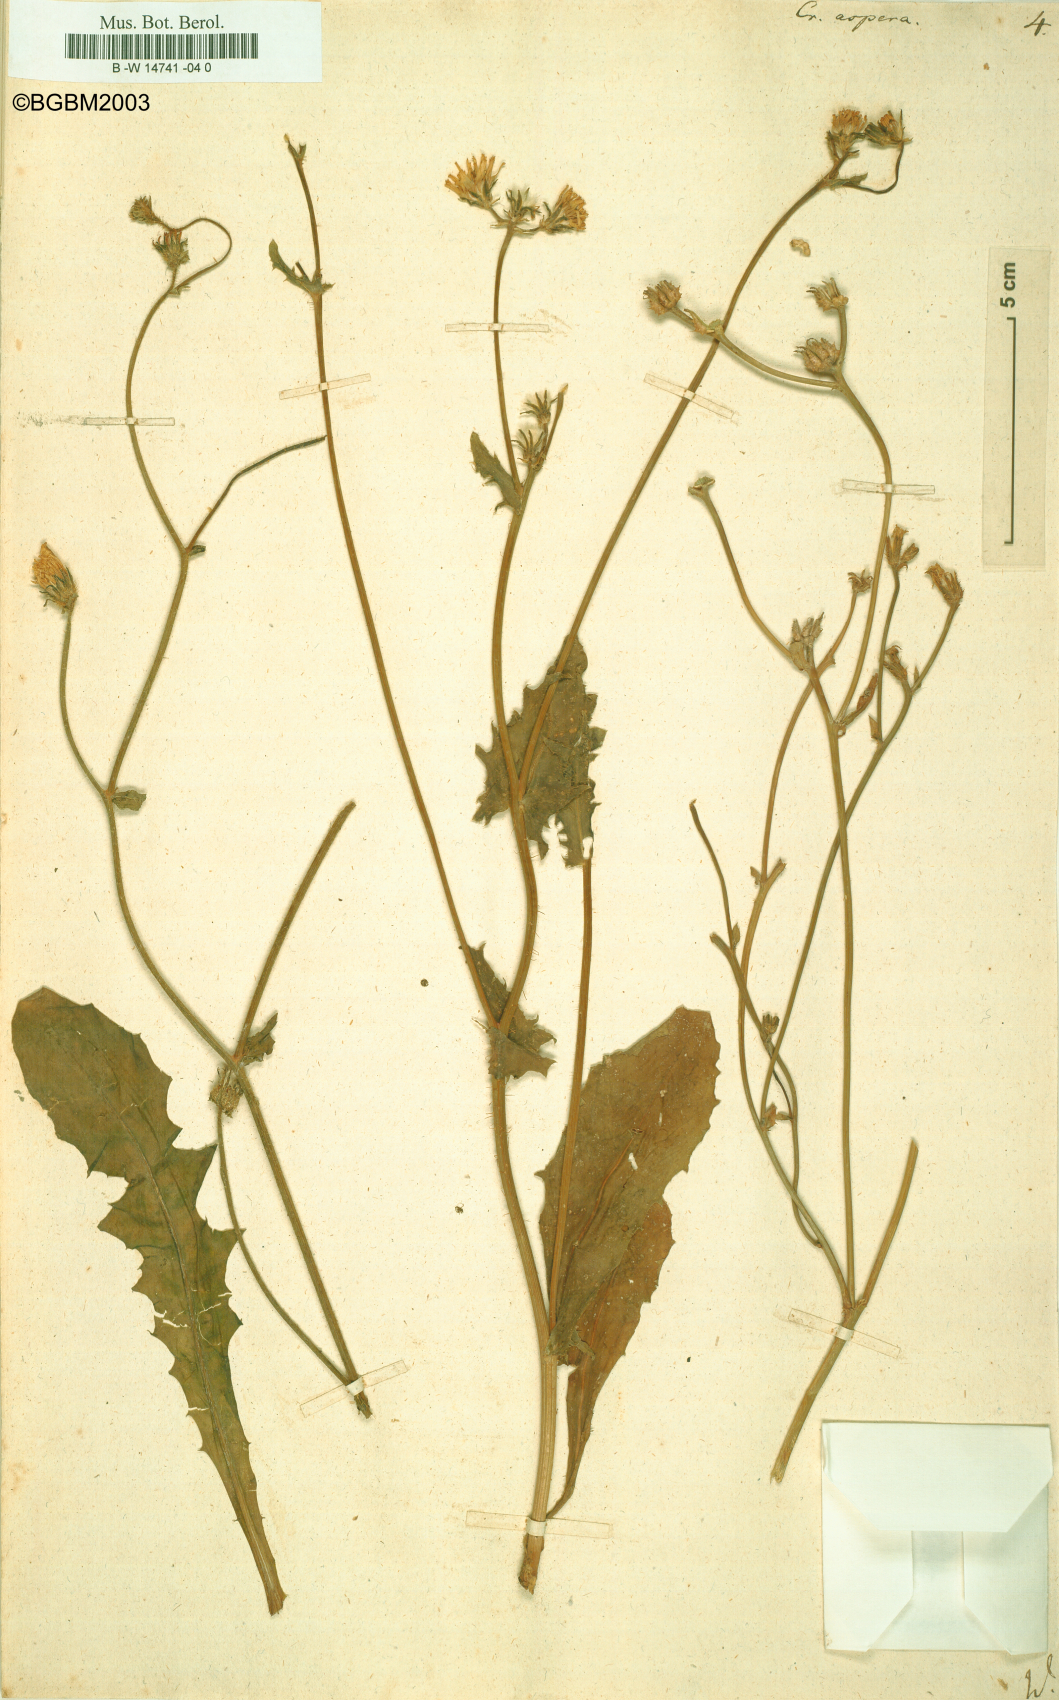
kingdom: Plantae
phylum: Tracheophyta
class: Magnoliopsida
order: Asterales
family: Asteraceae
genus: Crepis
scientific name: Crepis aspera
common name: Hawk's-beard
